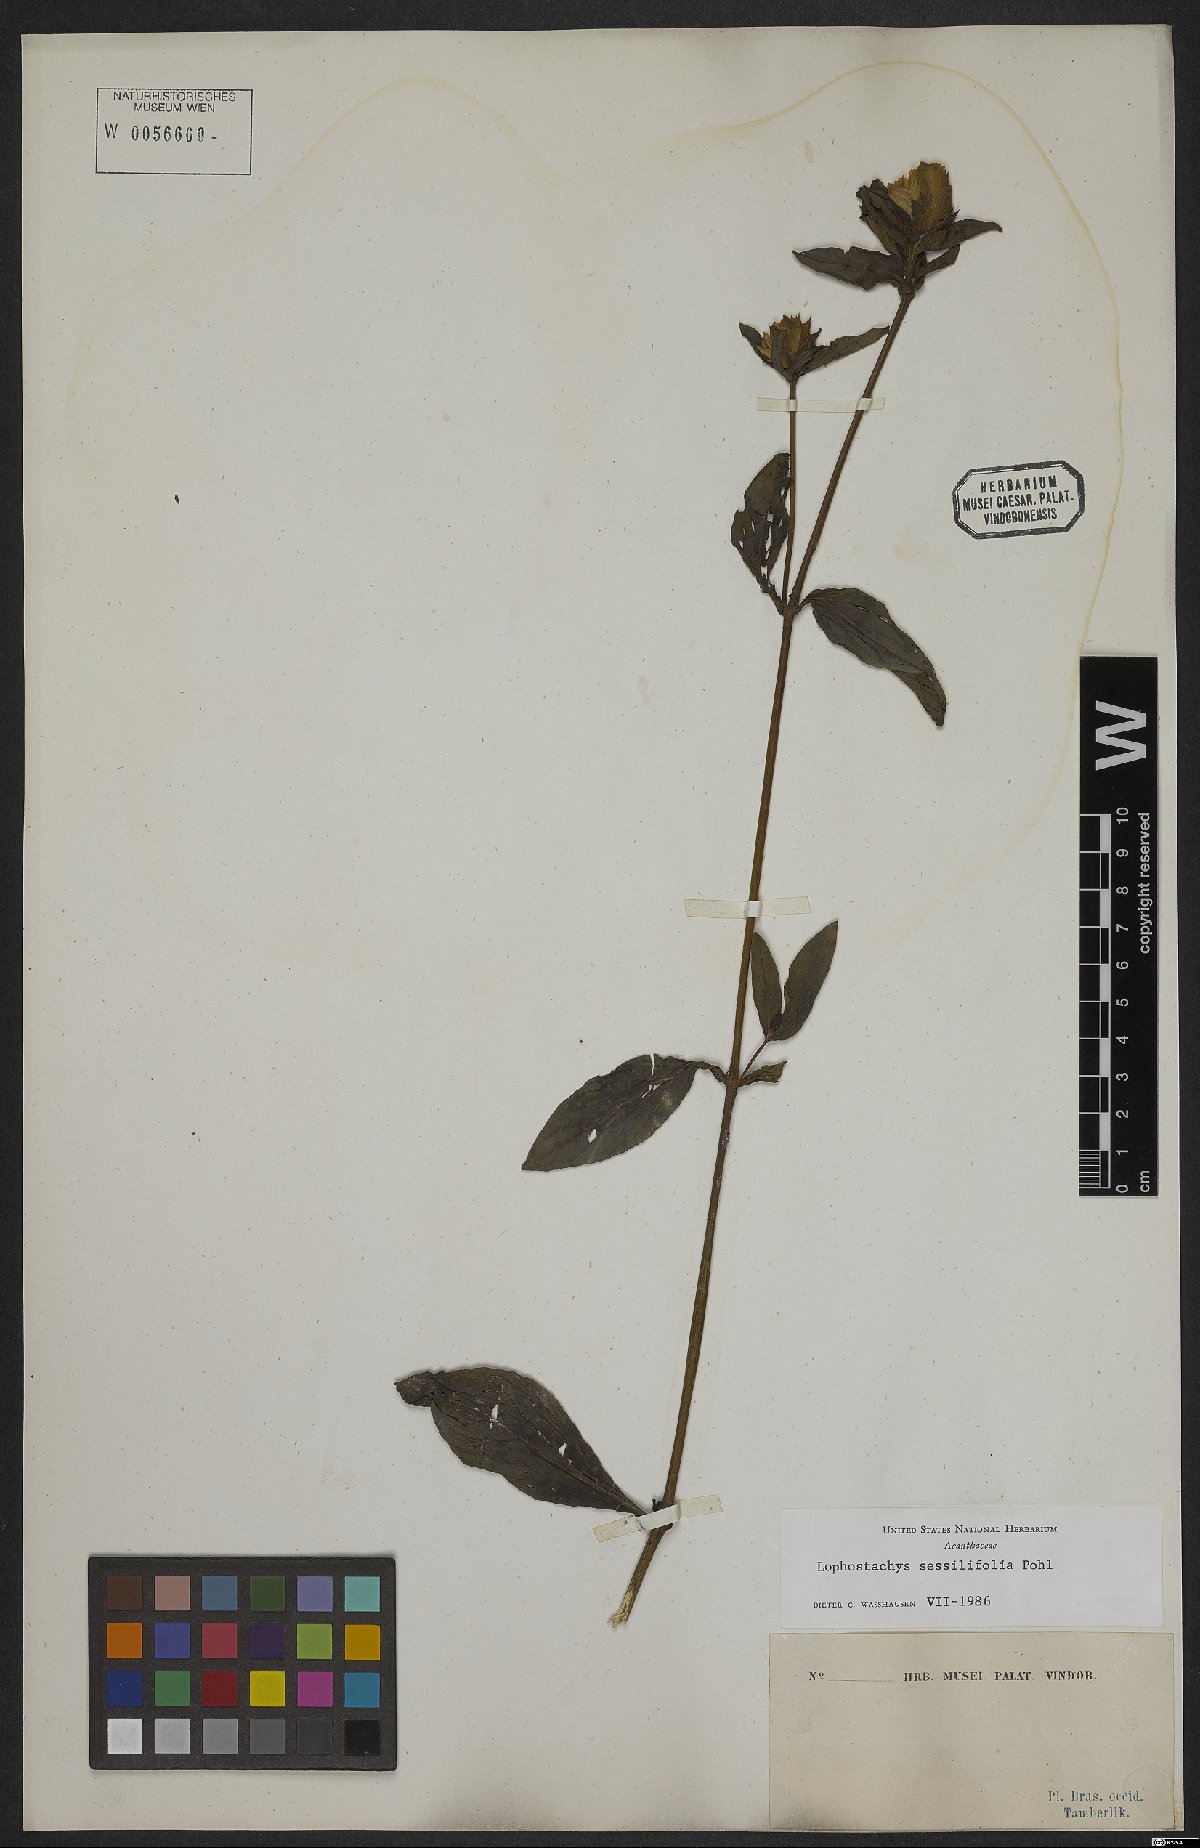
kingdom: Plantae
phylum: Tracheophyta
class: Magnoliopsida
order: Lamiales
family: Acanthaceae
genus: Lepidagathis
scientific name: Lepidagathis sessilifolia
